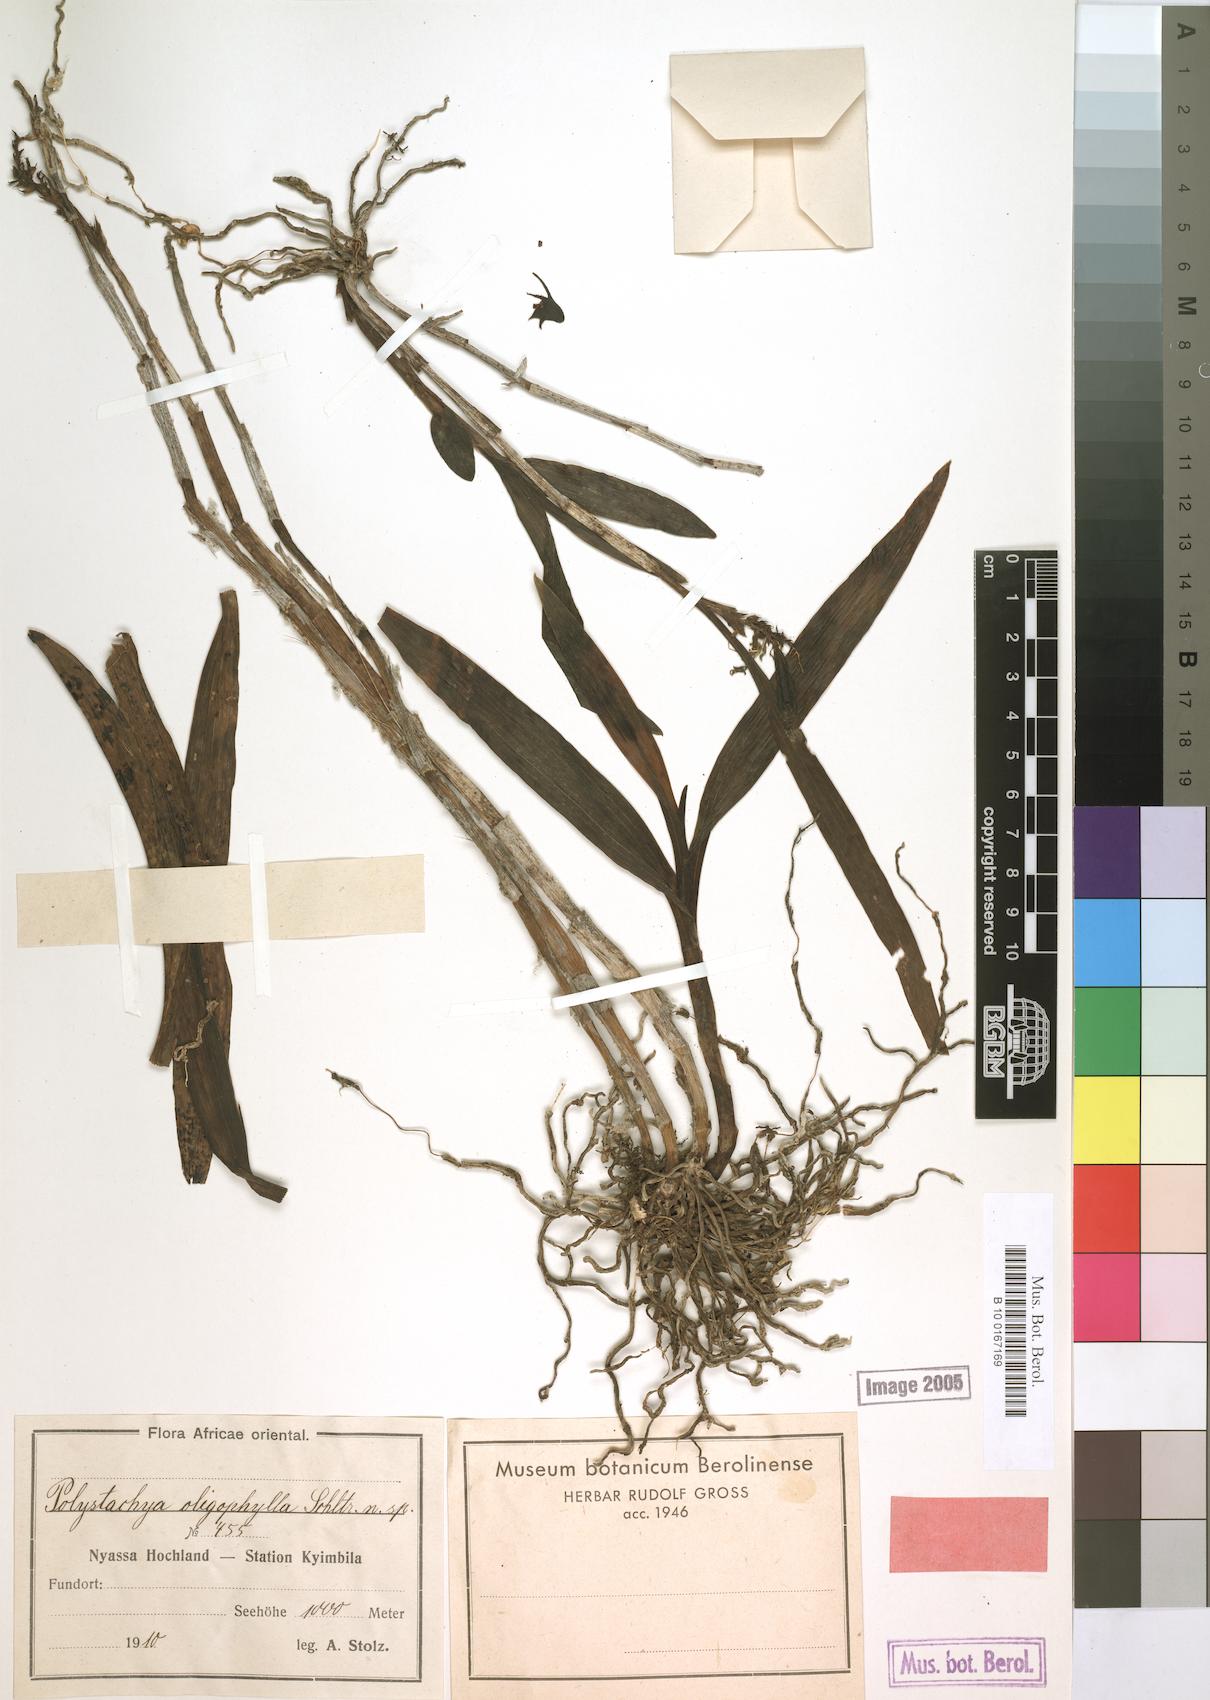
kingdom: Plantae
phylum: Tracheophyta
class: Liliopsida
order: Asparagales
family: Orchidaceae
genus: Polystachya
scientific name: Polystachya albescens
